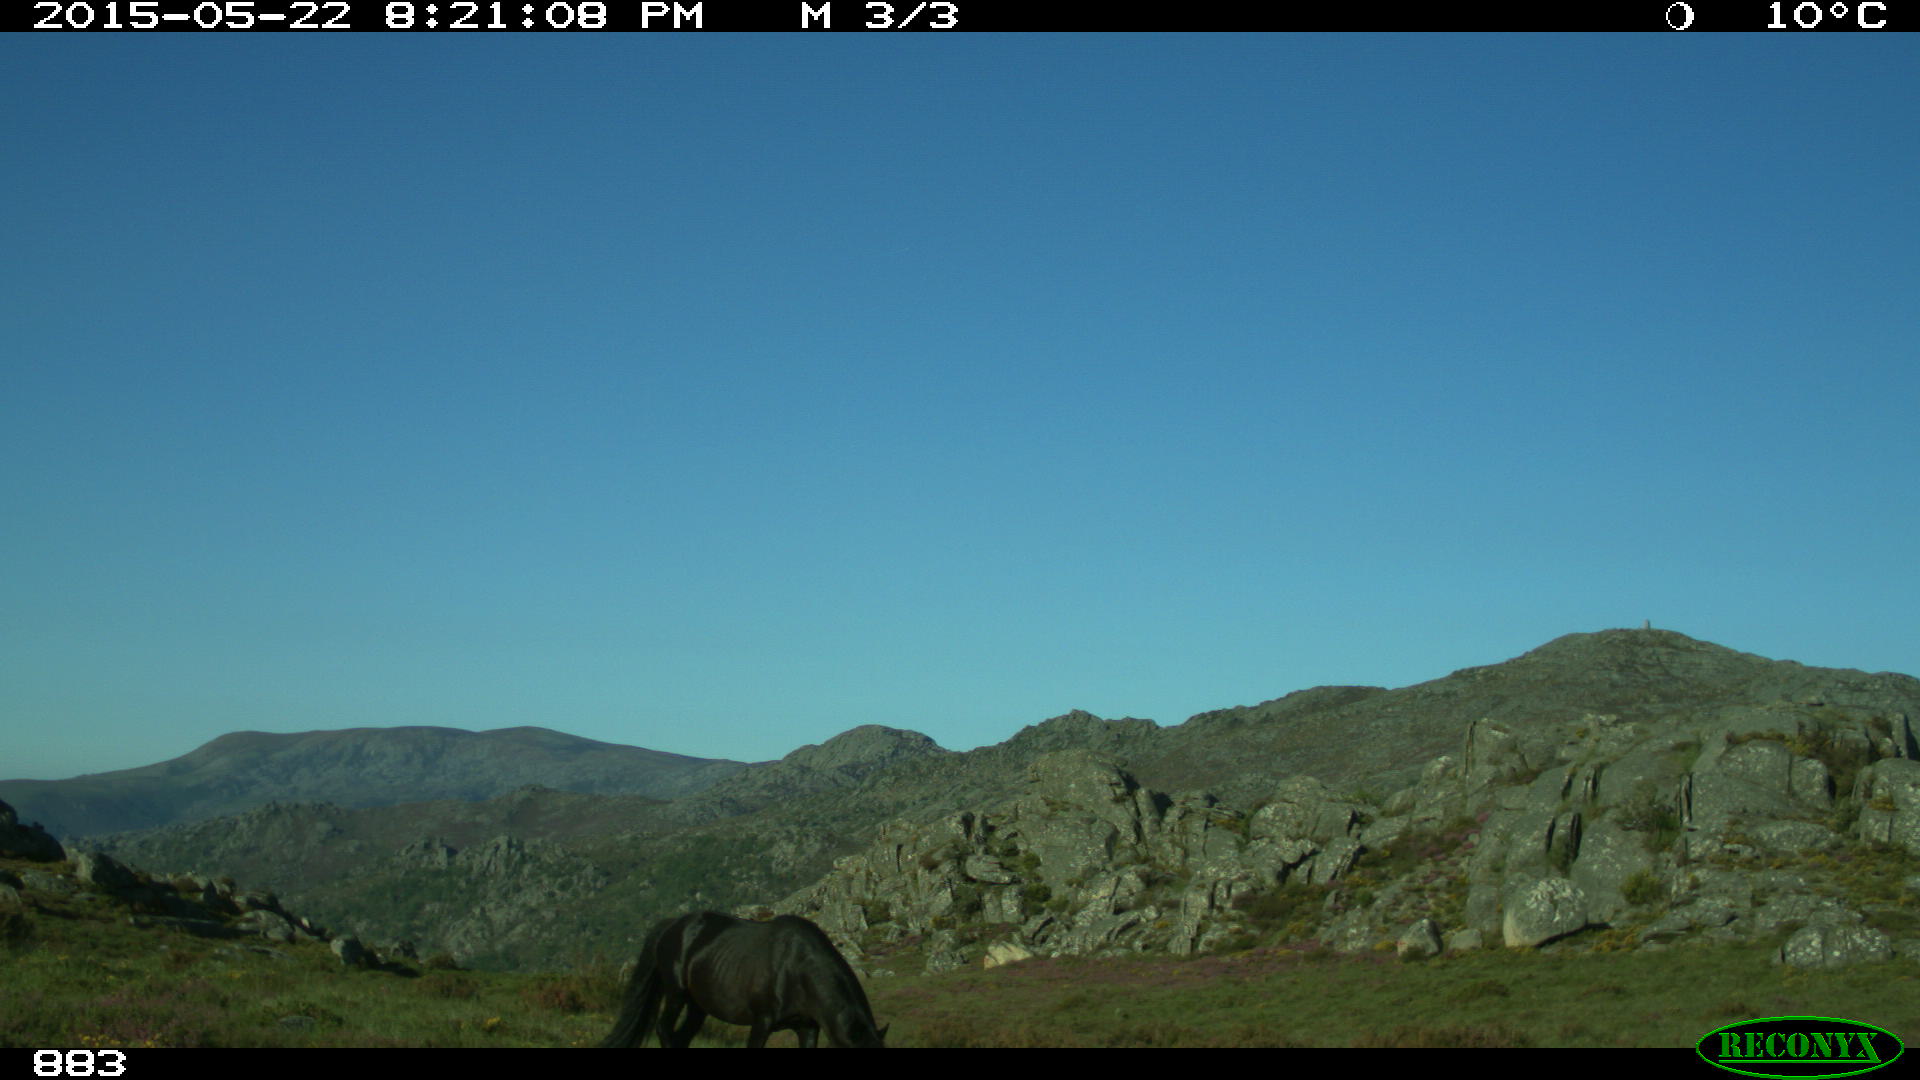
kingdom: Animalia
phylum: Chordata
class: Mammalia
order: Perissodactyla
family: Equidae
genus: Equus
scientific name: Equus caballus
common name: Horse
